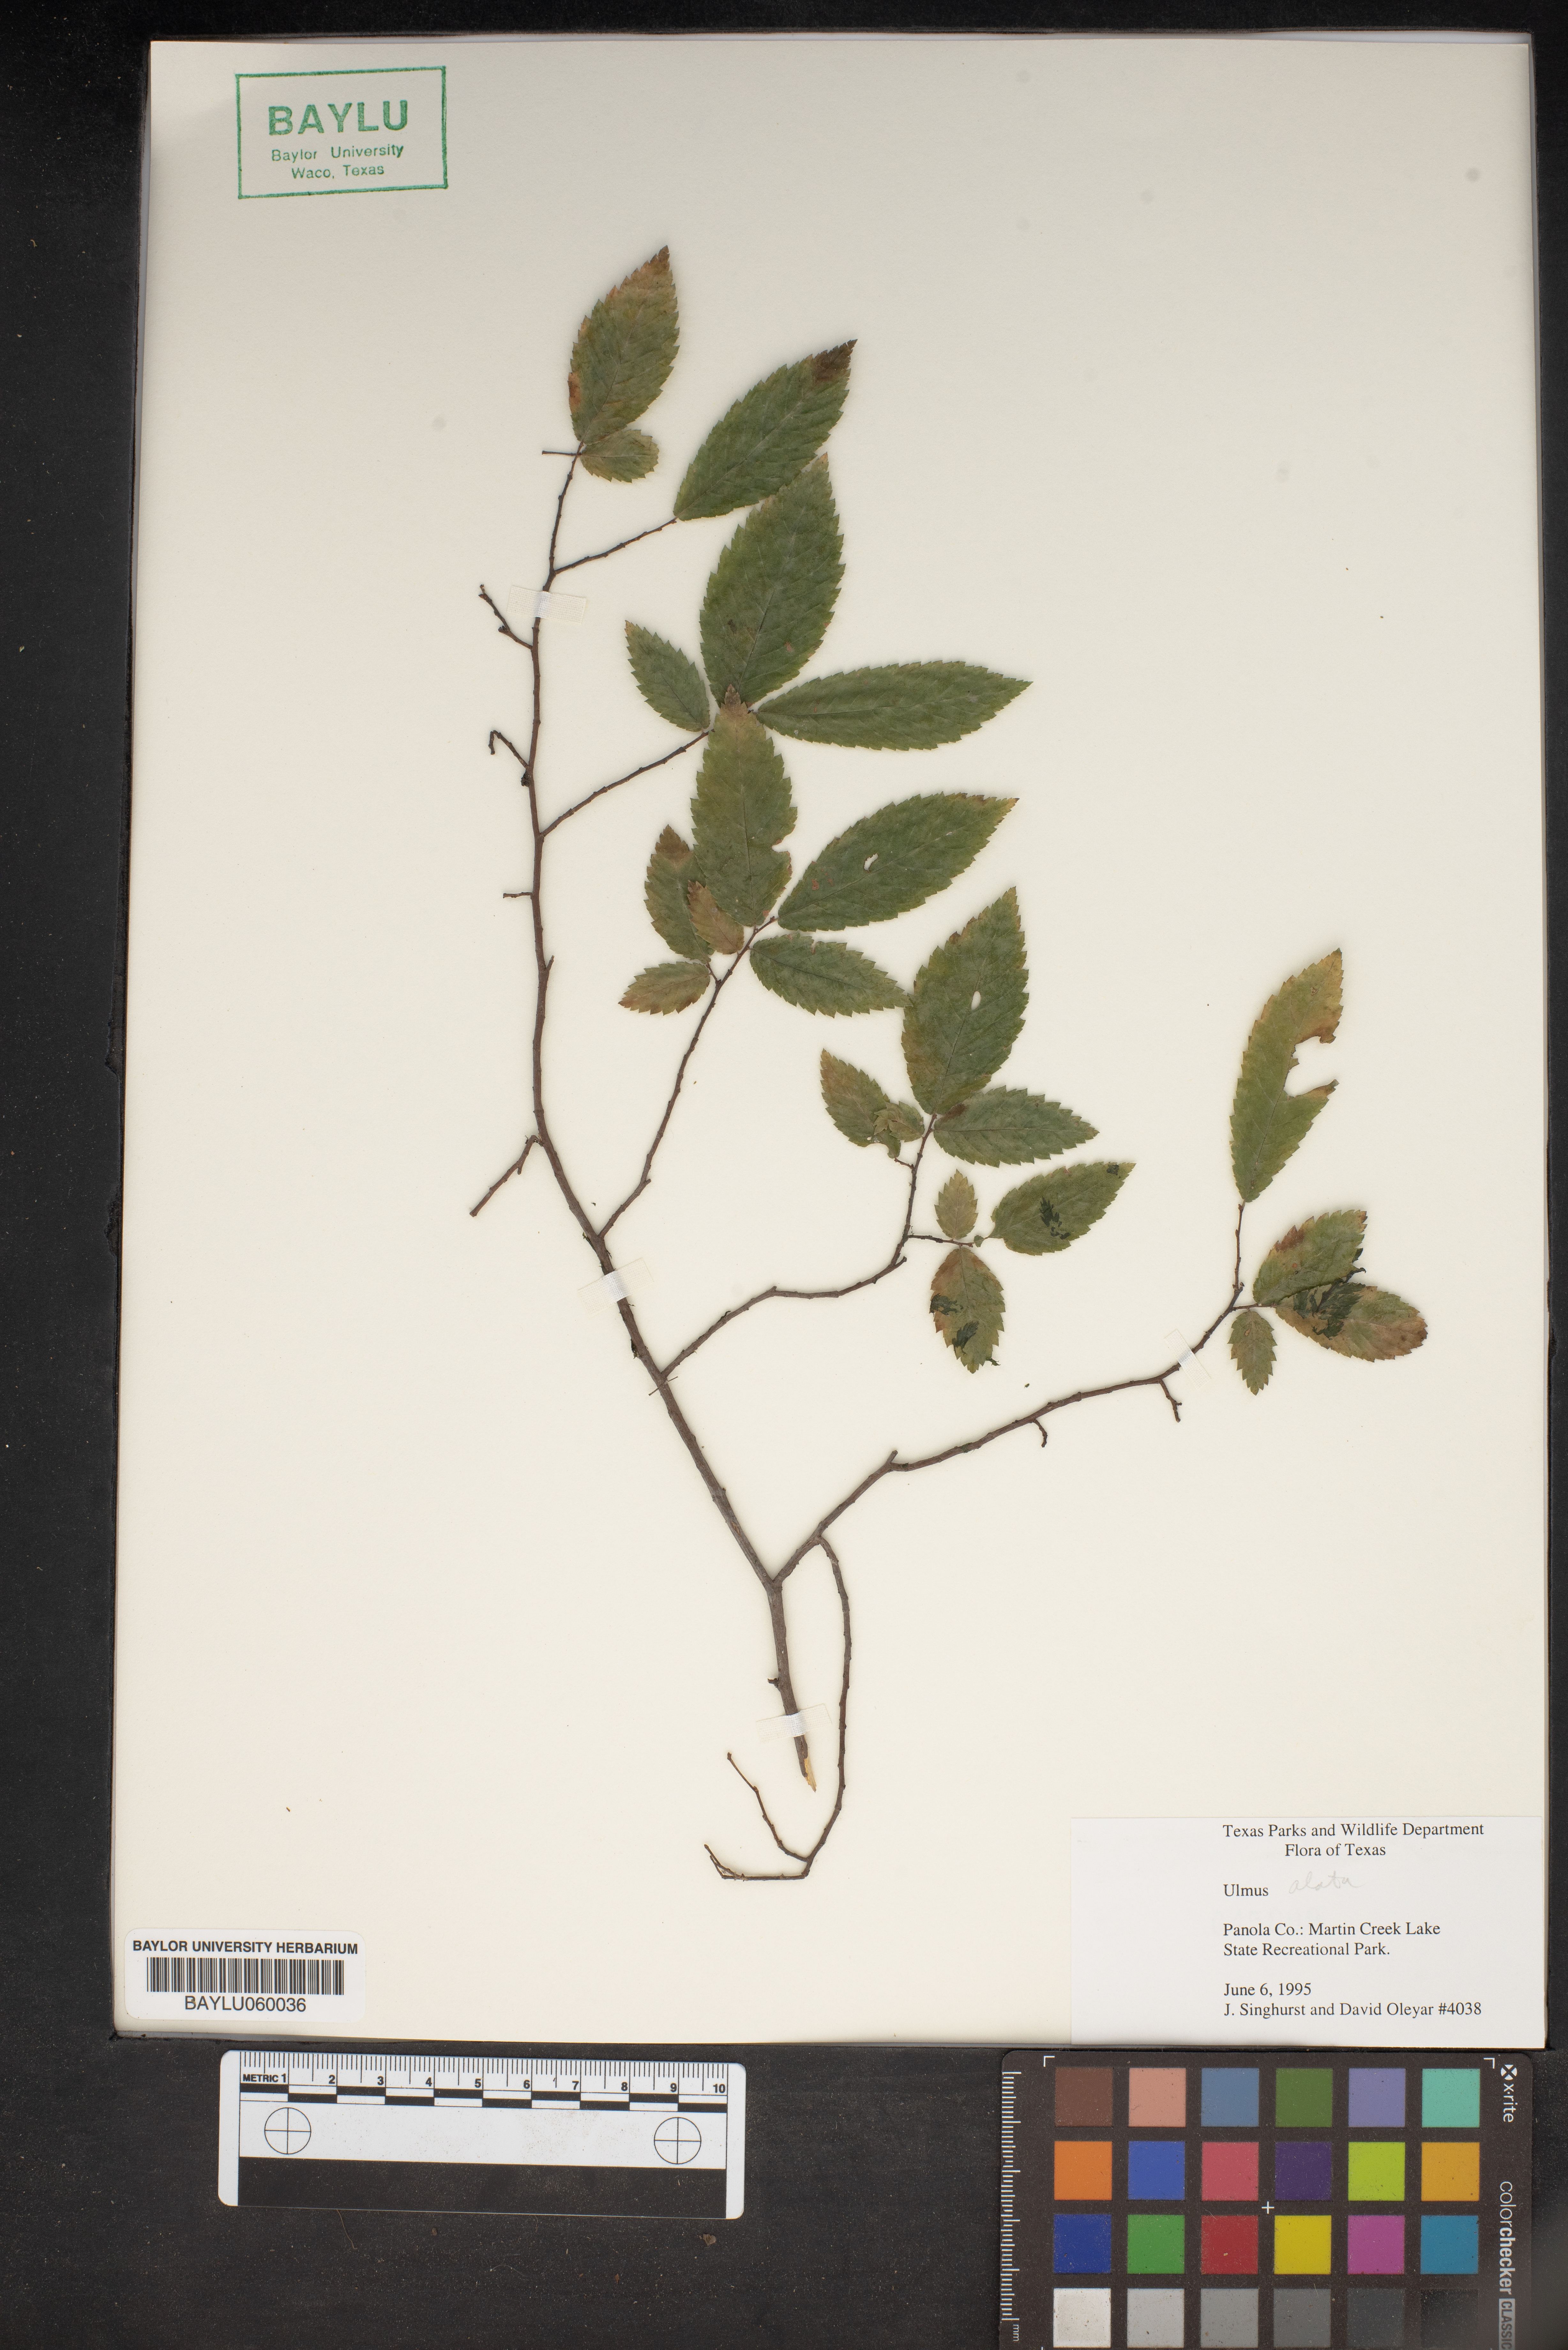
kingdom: Plantae
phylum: Tracheophyta
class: Magnoliopsida
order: Rosales
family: Ulmaceae
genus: Ulmus
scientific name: Ulmus alata
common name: Winged elm
